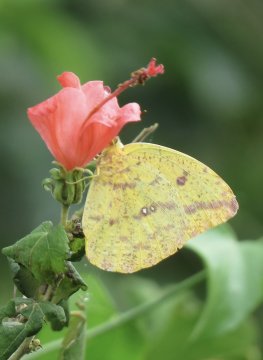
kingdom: Animalia
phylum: Arthropoda
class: Insecta
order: Lepidoptera
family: Pieridae
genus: Phoebis
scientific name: Phoebis agarithe
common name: Large Orange Sulphur
